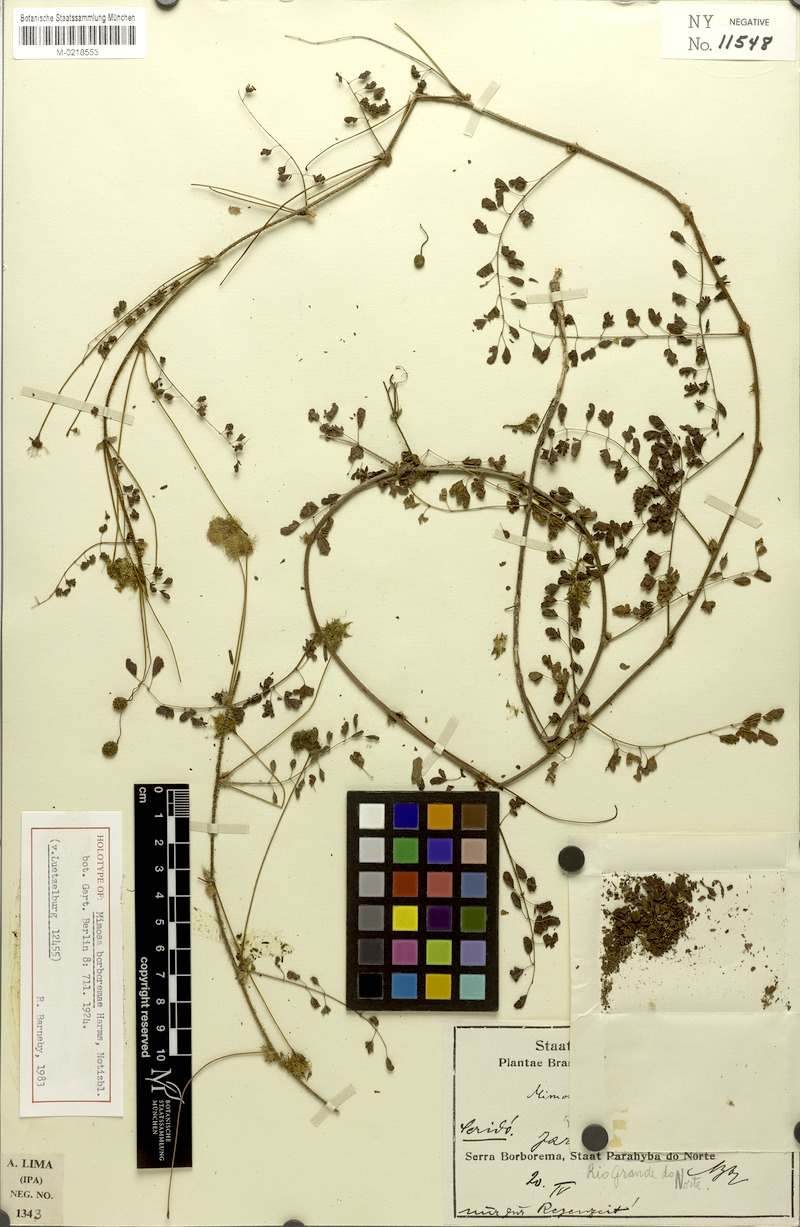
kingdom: Plantae
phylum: Tracheophyta
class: Magnoliopsida
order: Fabales
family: Fabaceae
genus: Mimosa
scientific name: Mimosa borboremae
